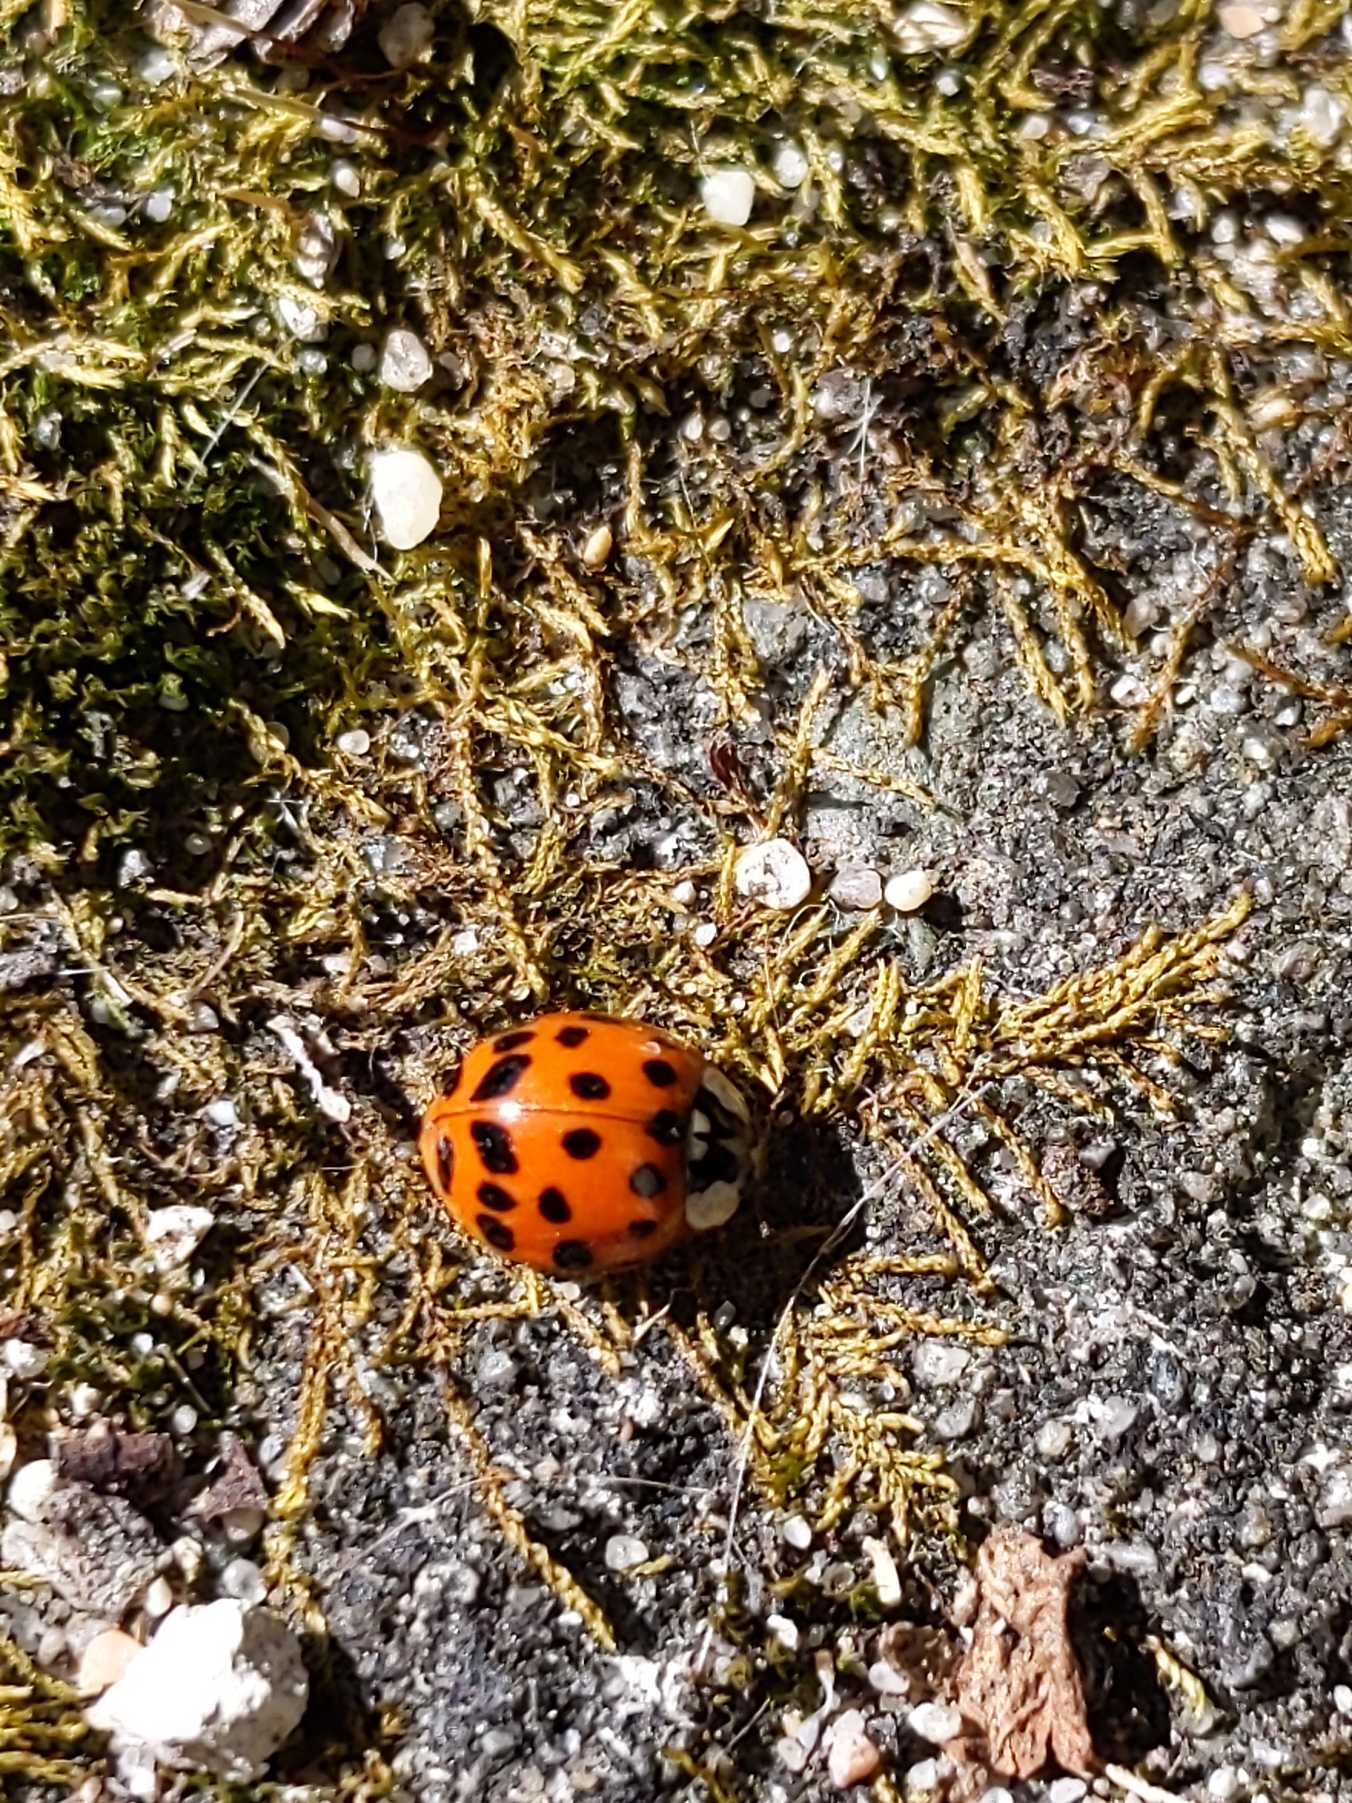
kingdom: Animalia
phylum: Arthropoda
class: Insecta
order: Coleoptera
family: Coccinellidae
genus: Harmonia
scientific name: Harmonia axyridis
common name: Harlekinmariehøne
